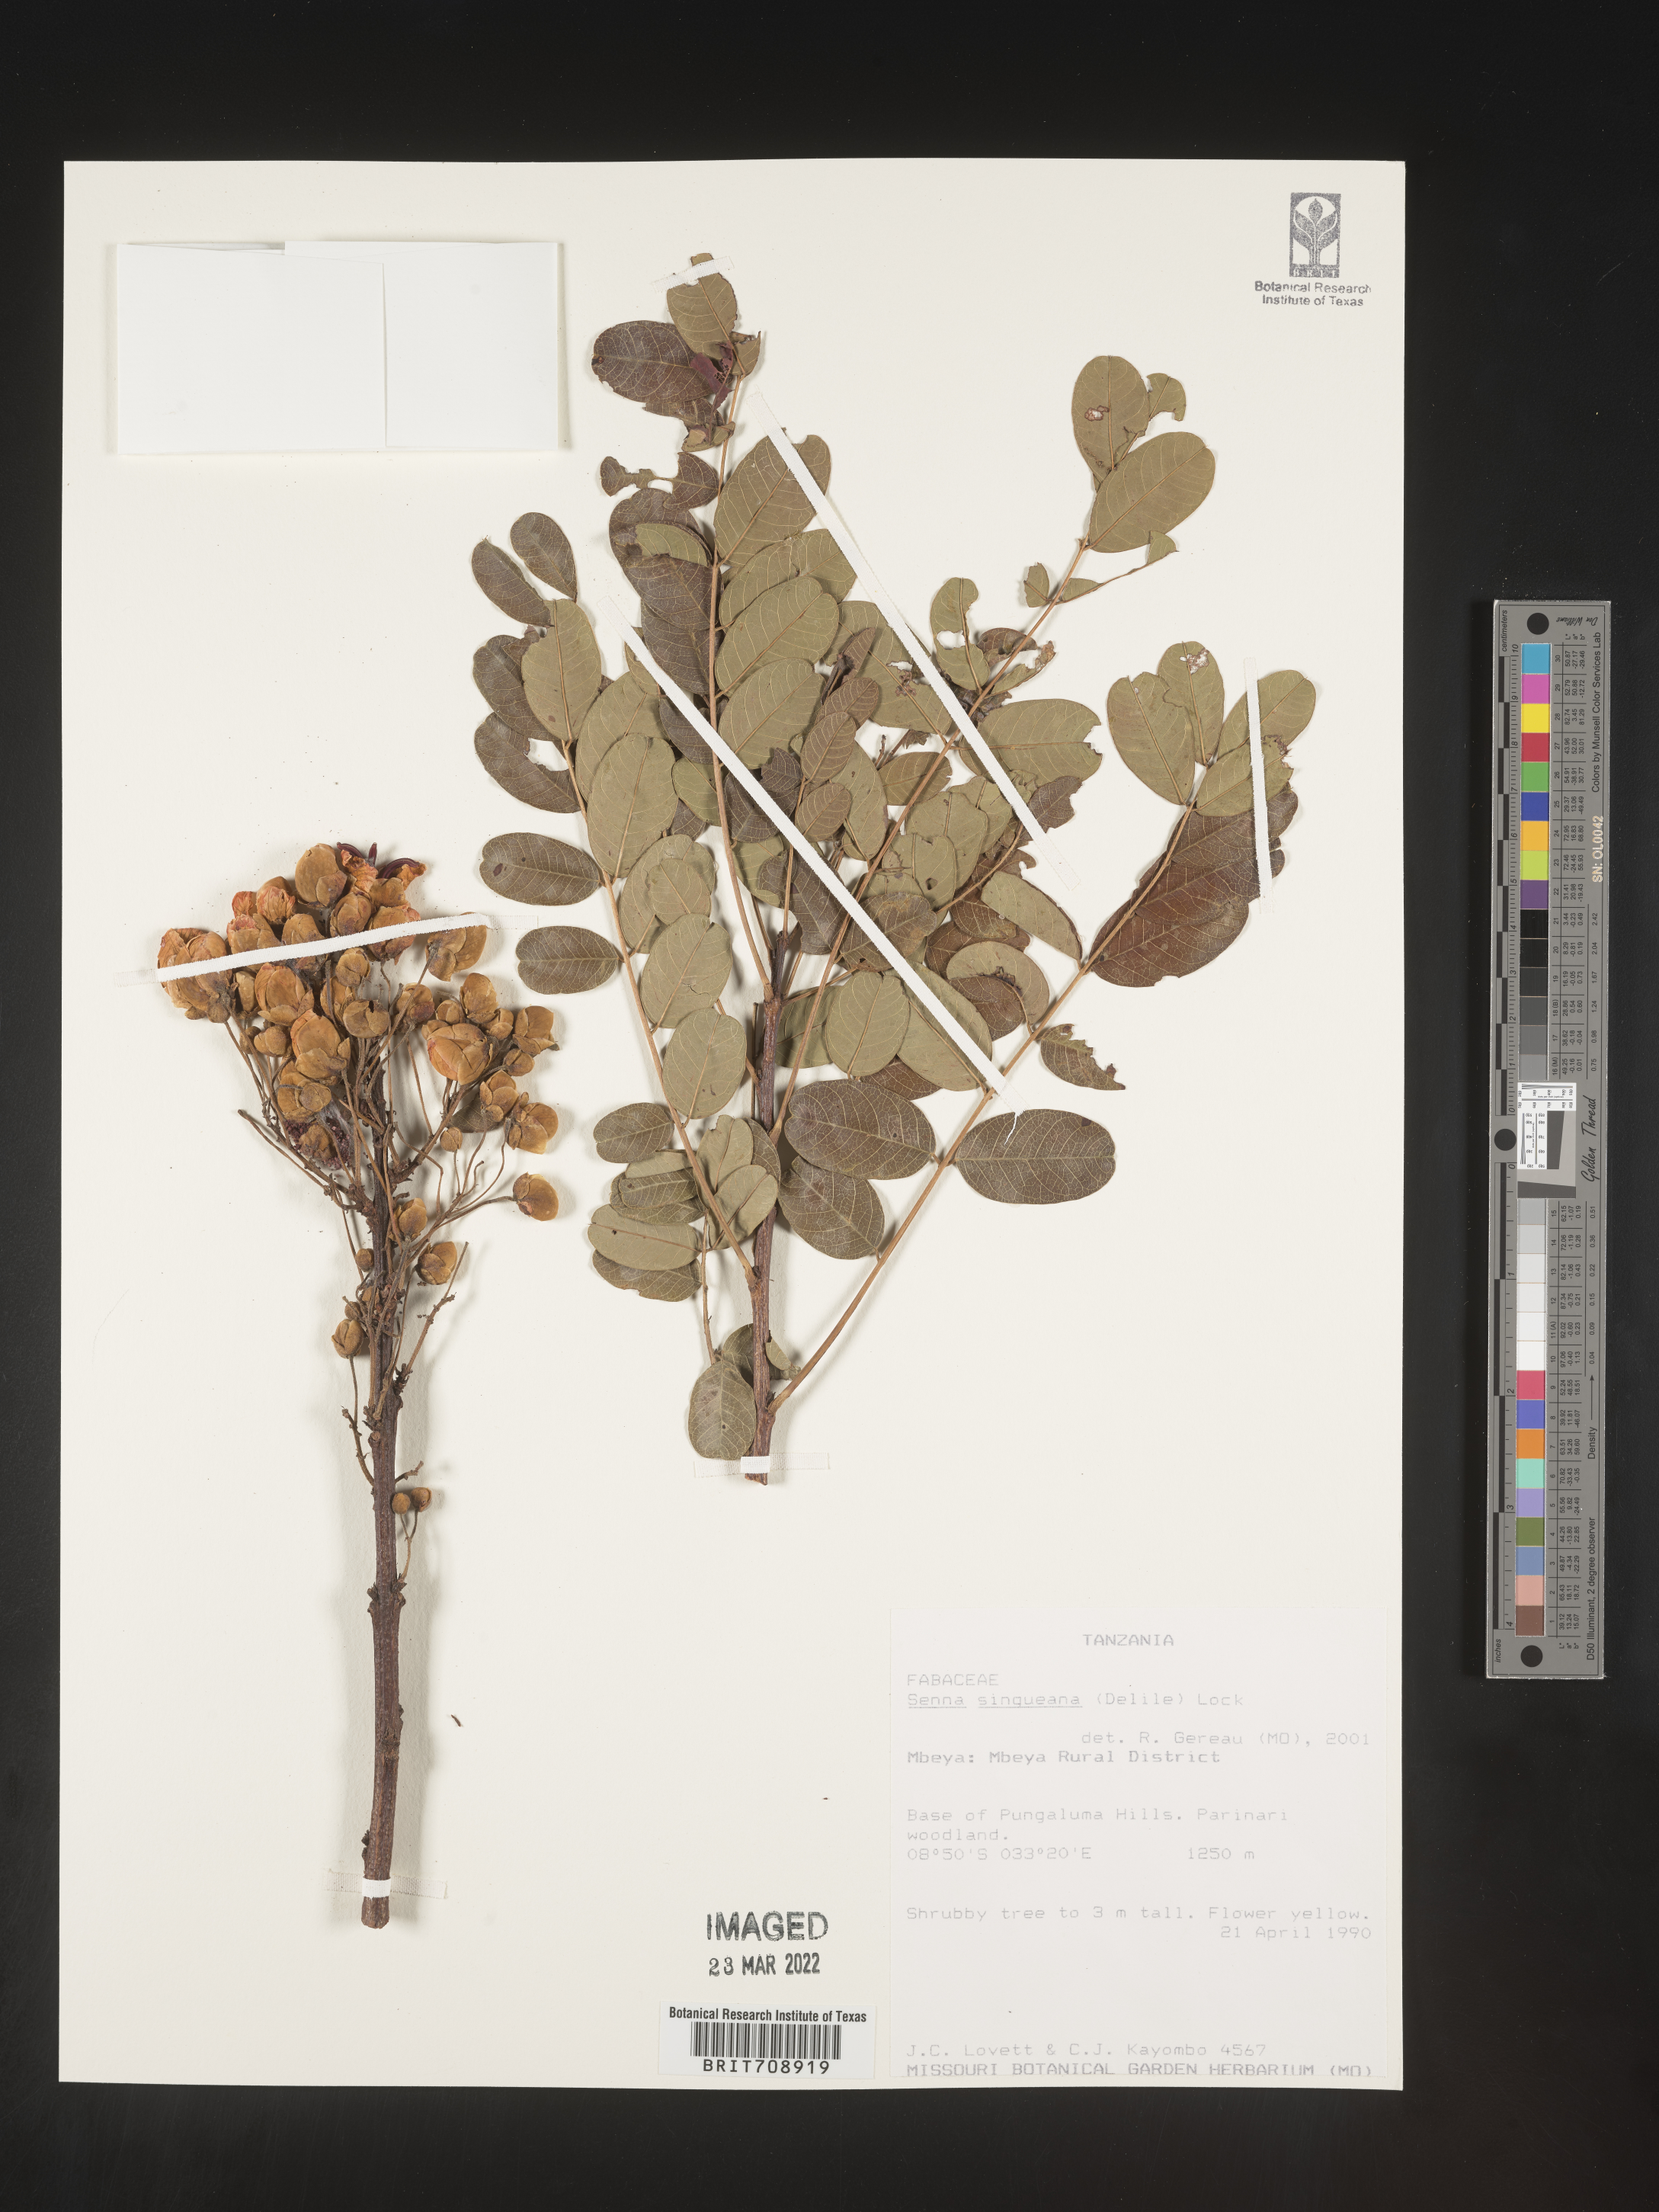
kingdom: Plantae
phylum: Tracheophyta
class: Magnoliopsida
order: Fabales
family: Fabaceae
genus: Senna
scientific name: Senna
